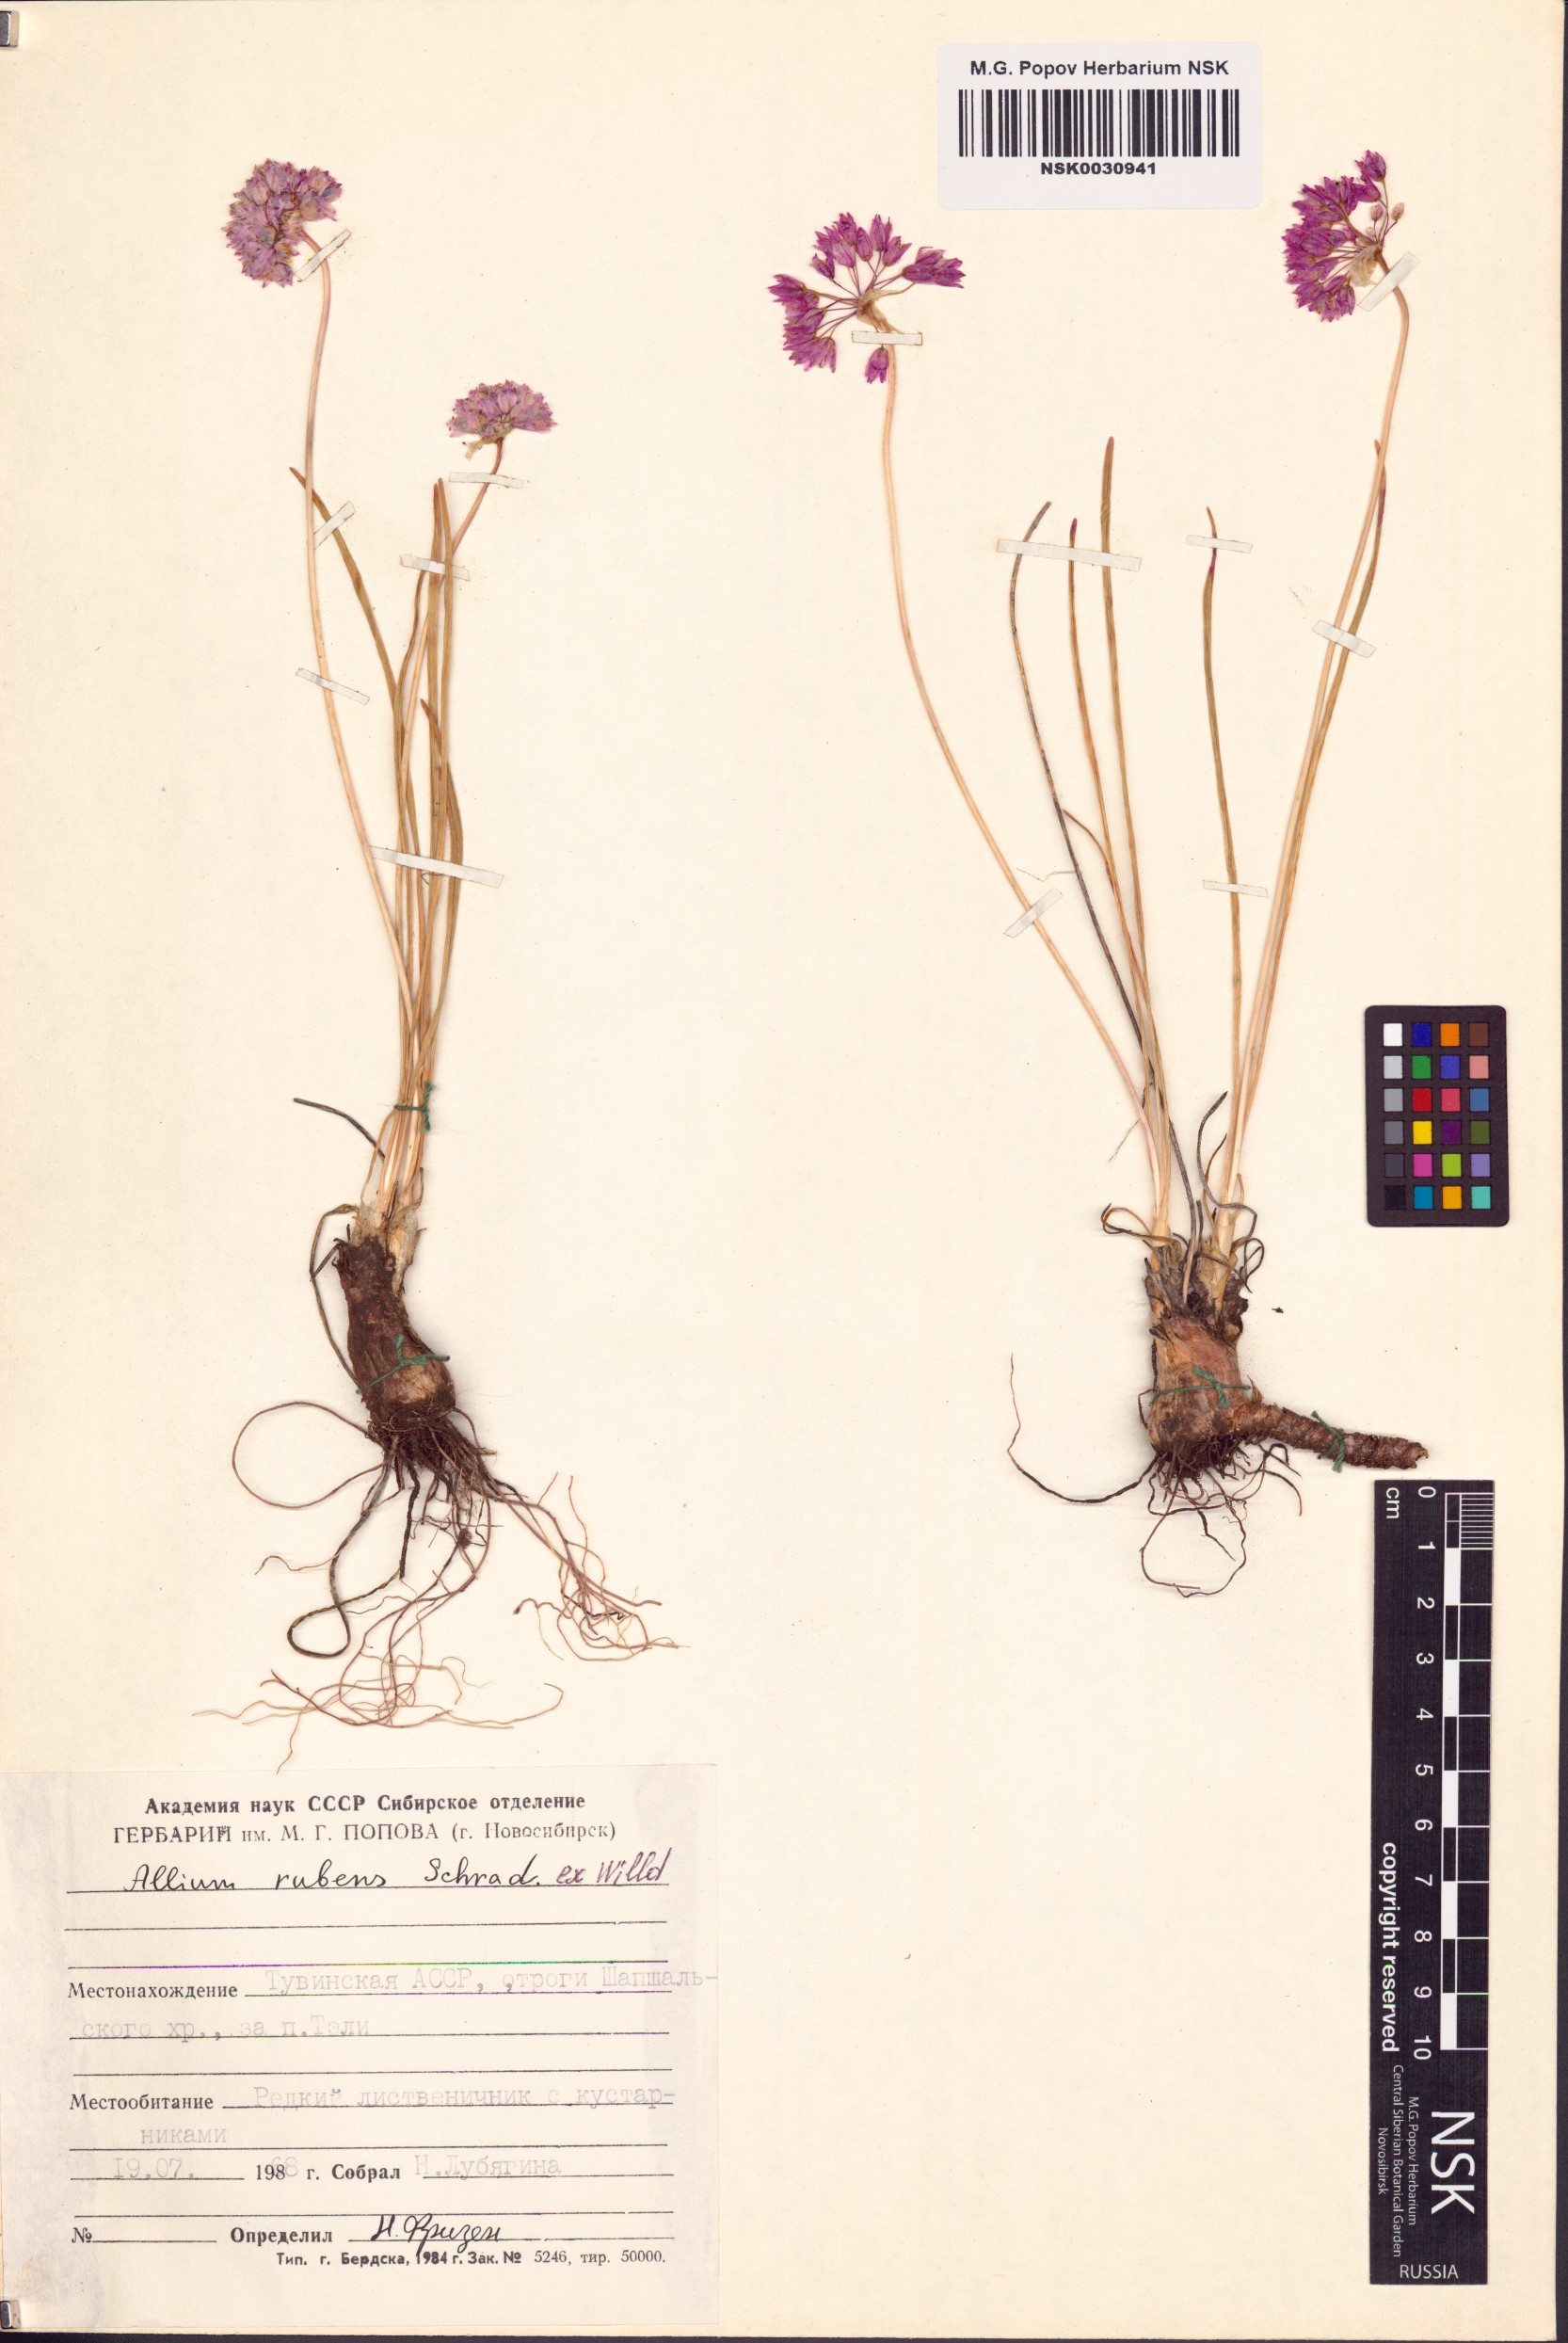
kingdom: Plantae
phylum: Tracheophyta
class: Liliopsida
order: Asparagales
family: Amaryllidaceae
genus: Allium
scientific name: Allium rubens
